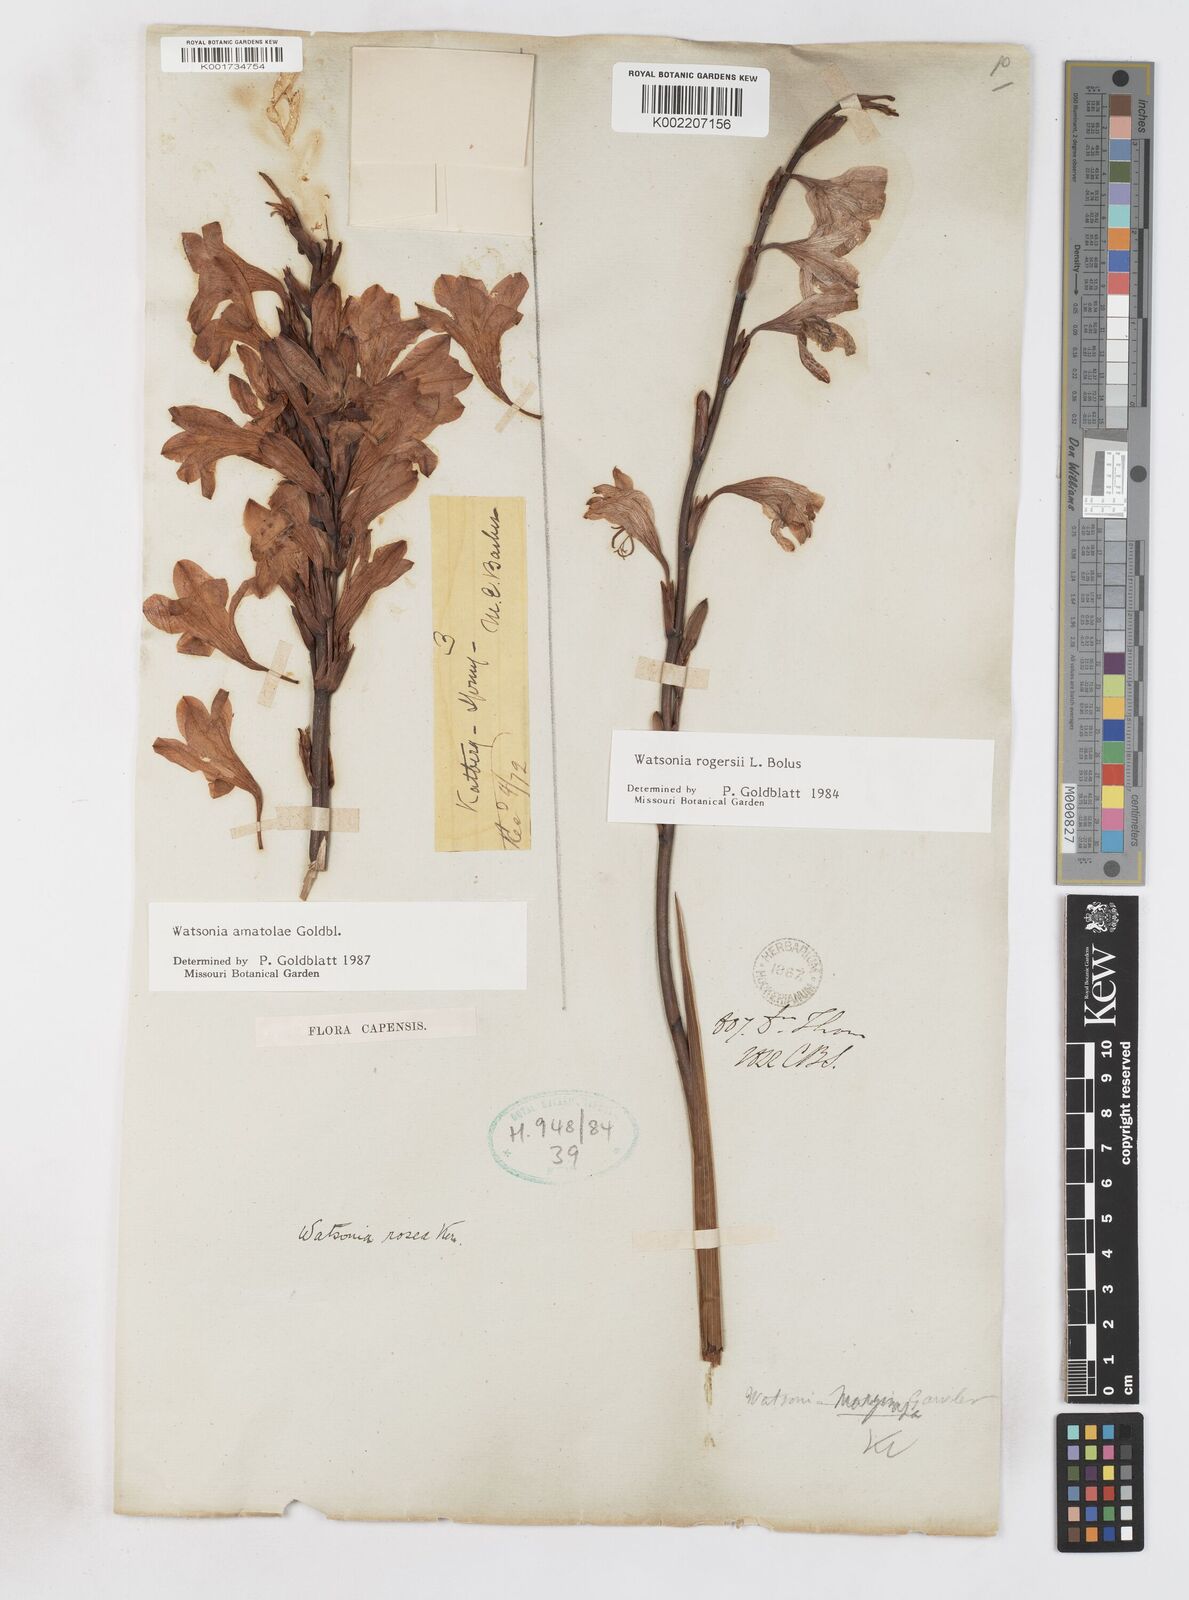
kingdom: Plantae
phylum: Tracheophyta
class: Liliopsida
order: Asparagales
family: Iridaceae
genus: Watsonia
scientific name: Watsonia amatolae
